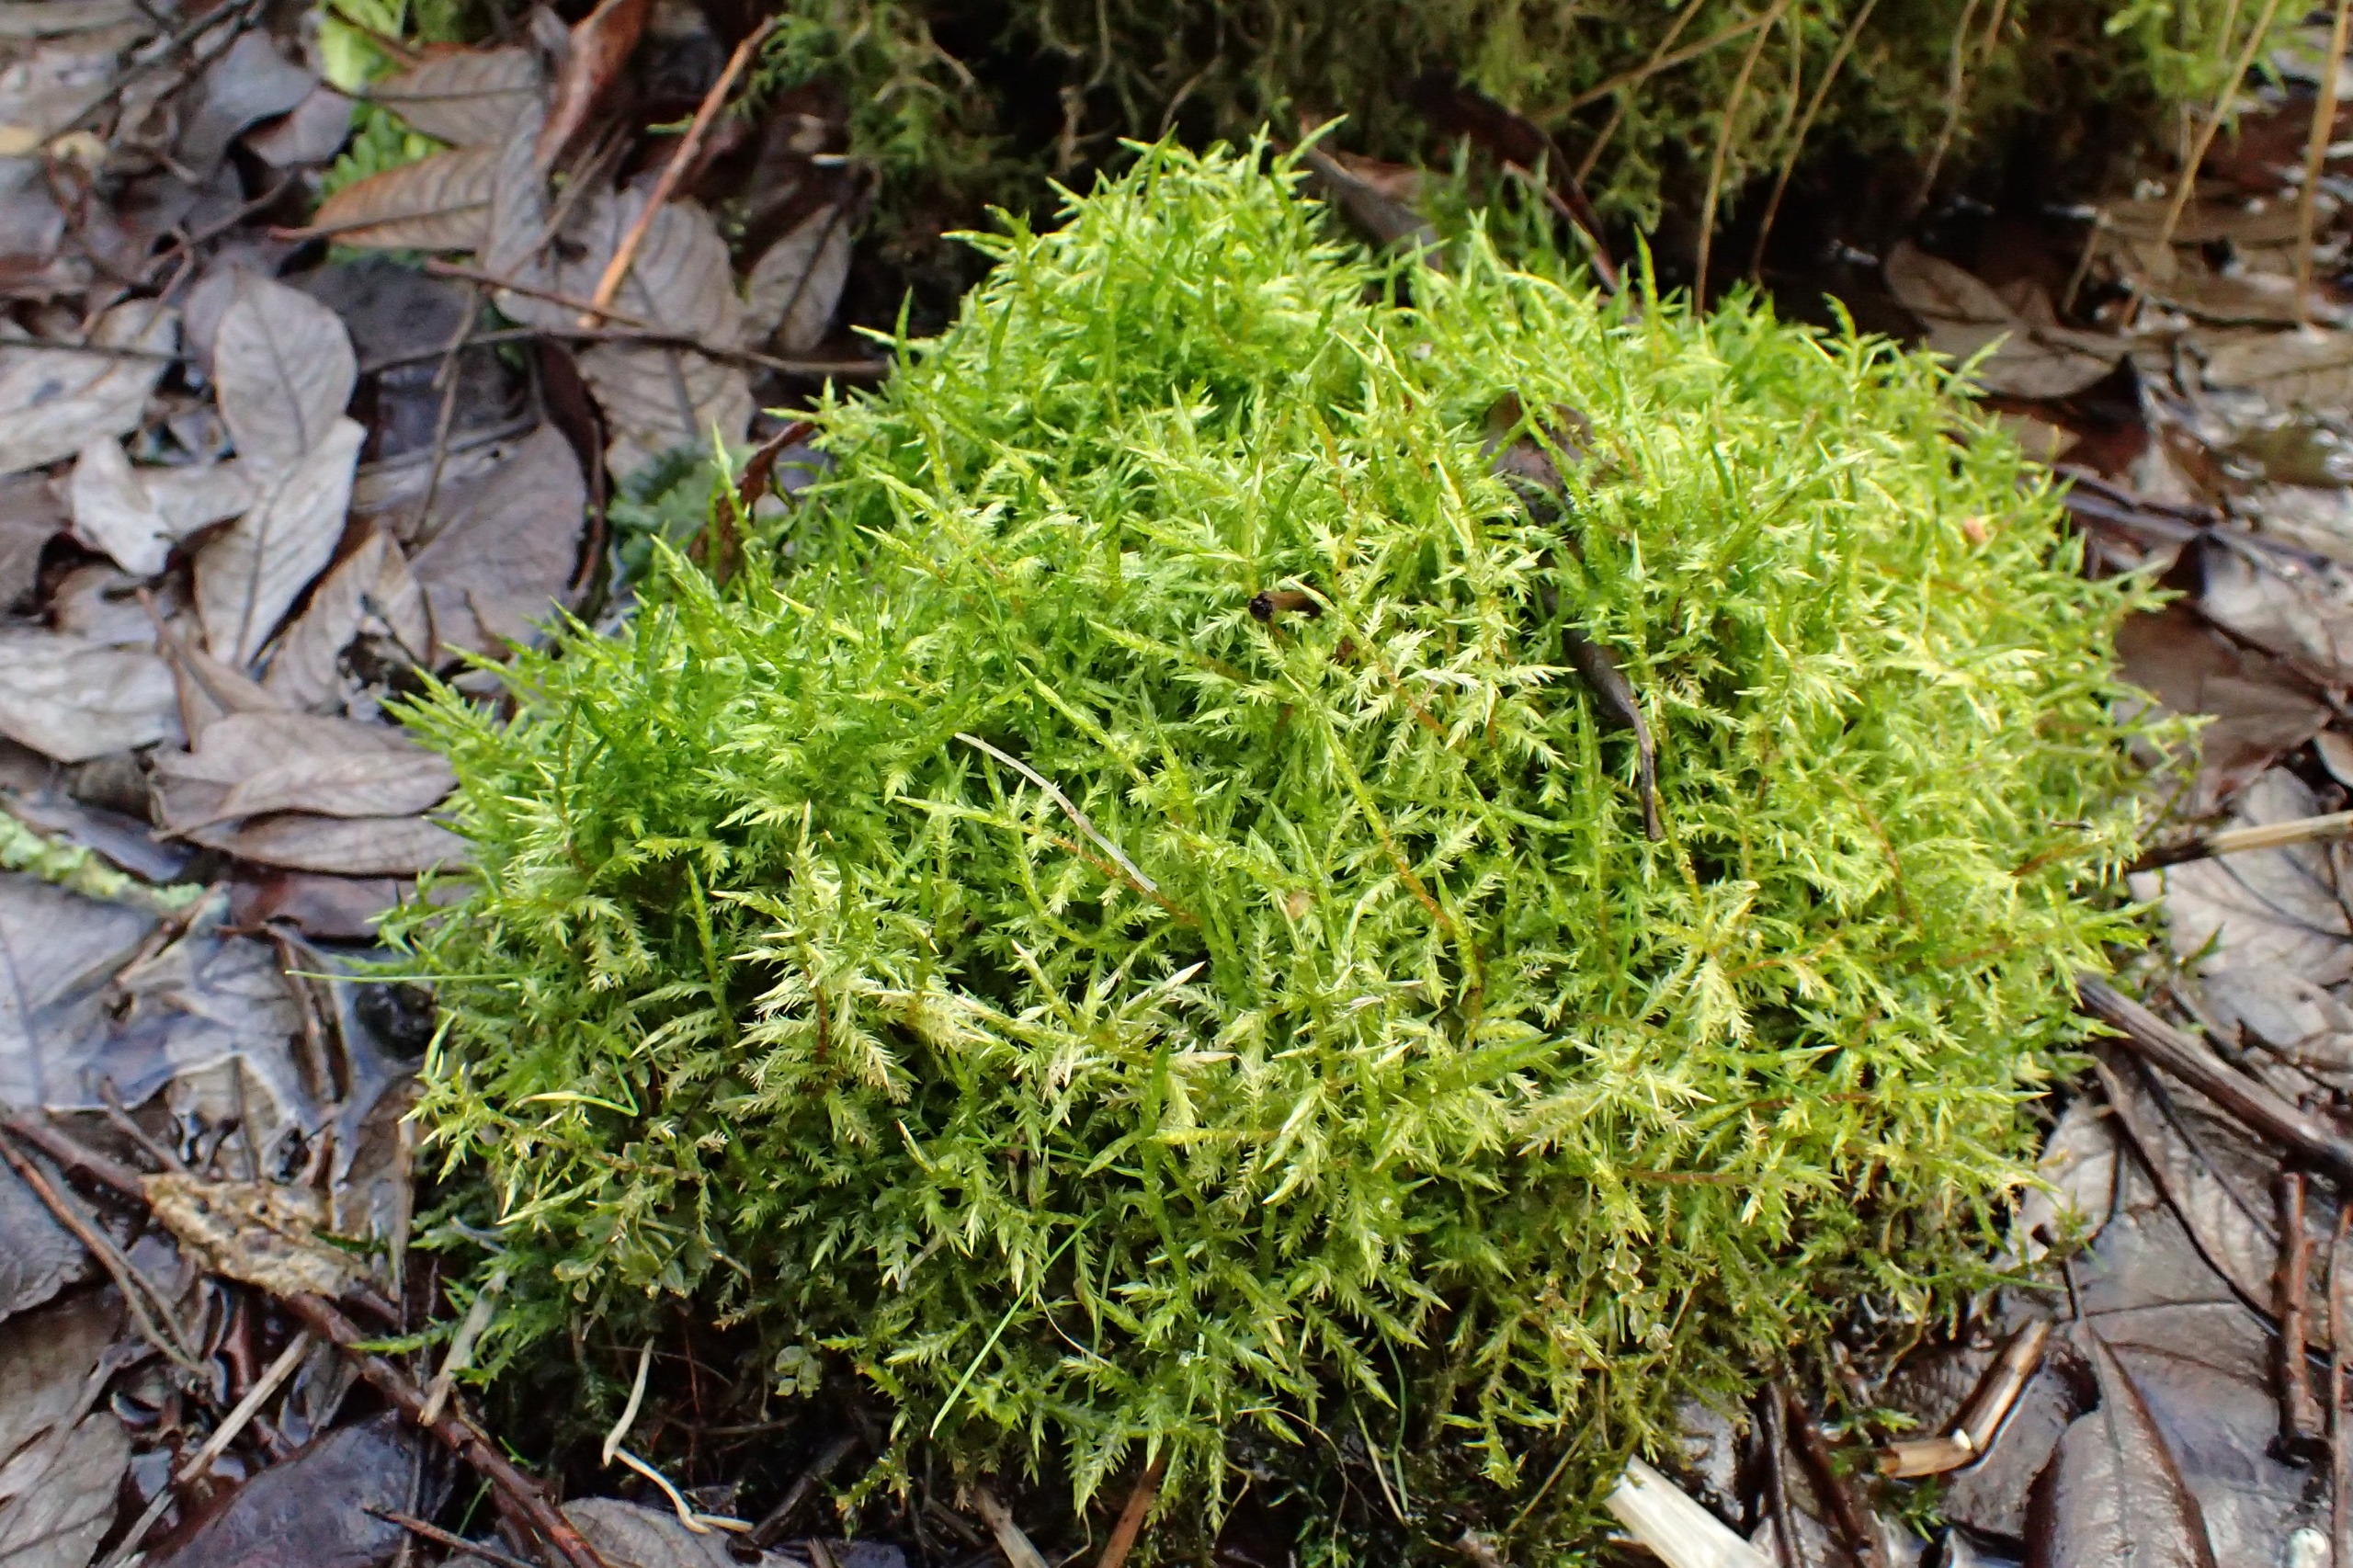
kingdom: Plantae
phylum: Bryophyta
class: Bryopsida
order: Hypnales
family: Pylaisiaceae
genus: Calliergonella
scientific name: Calliergonella cuspidata
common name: Spids spydmos
